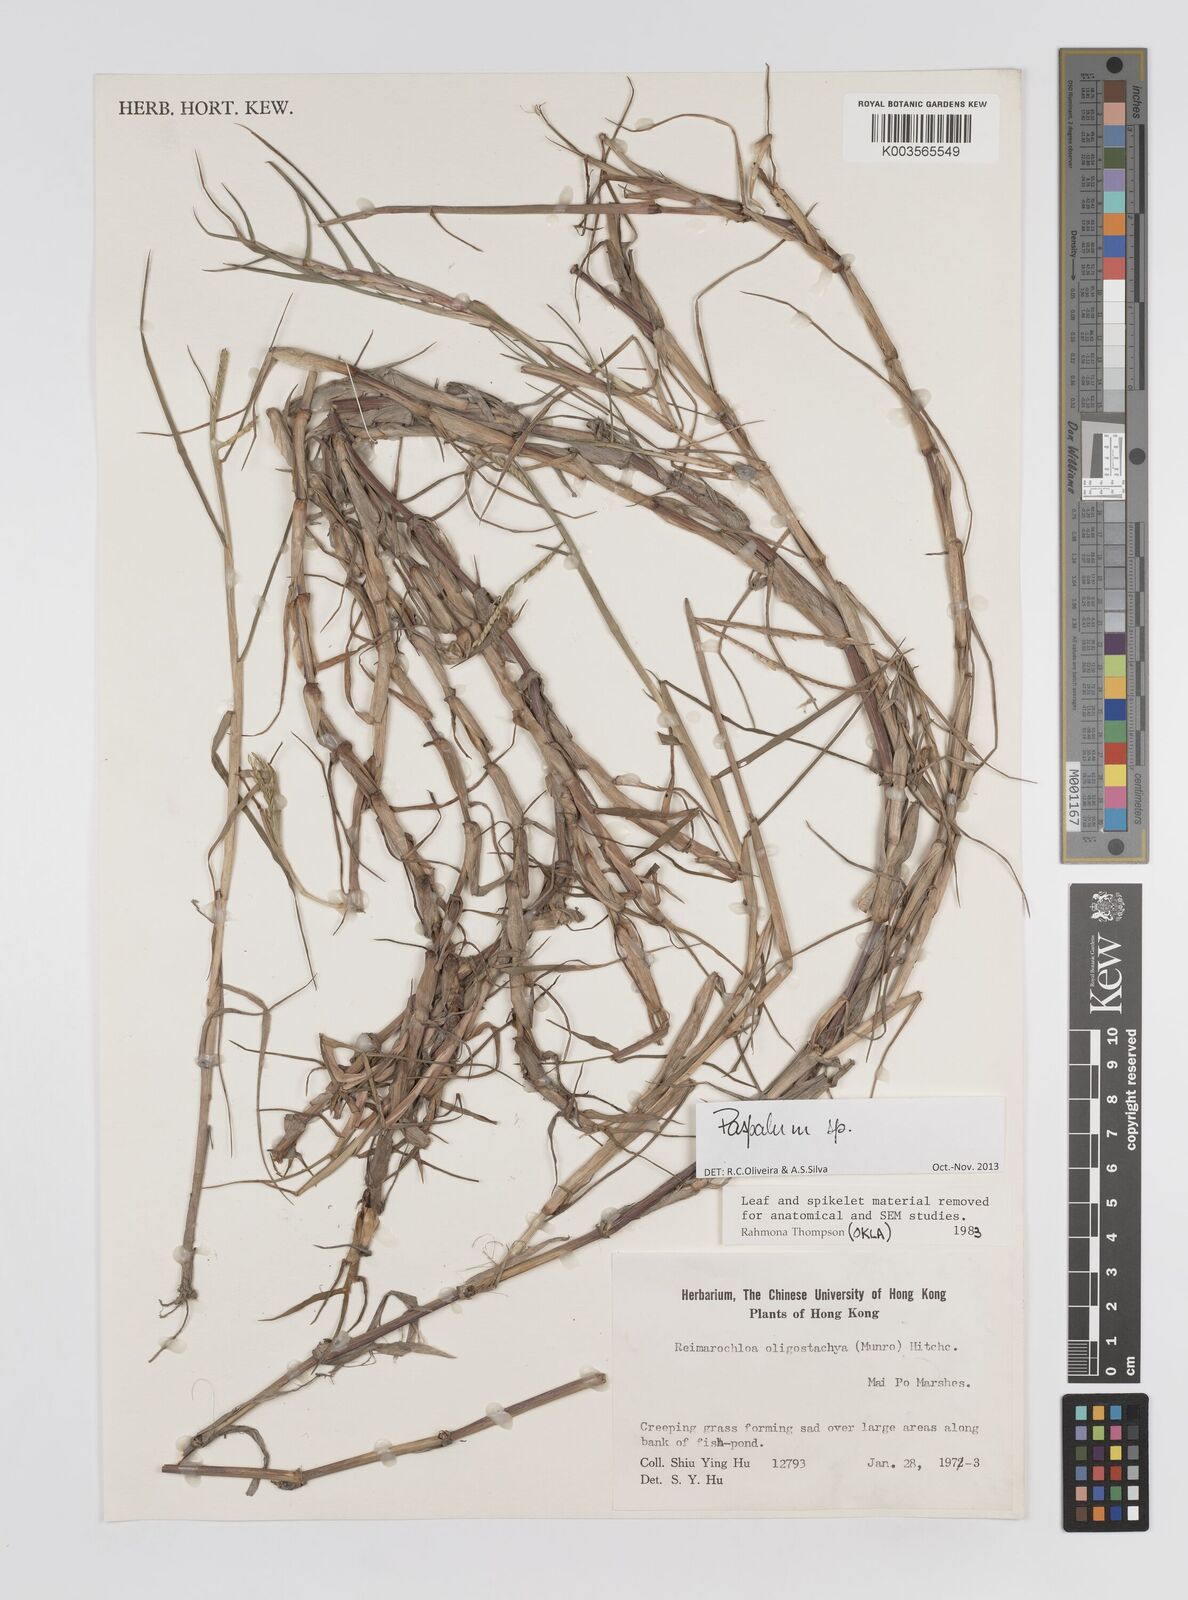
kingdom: Plantae
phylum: Tracheophyta
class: Liliopsida
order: Poales
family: Poaceae
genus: Paspalum
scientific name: Paspalum eglume
